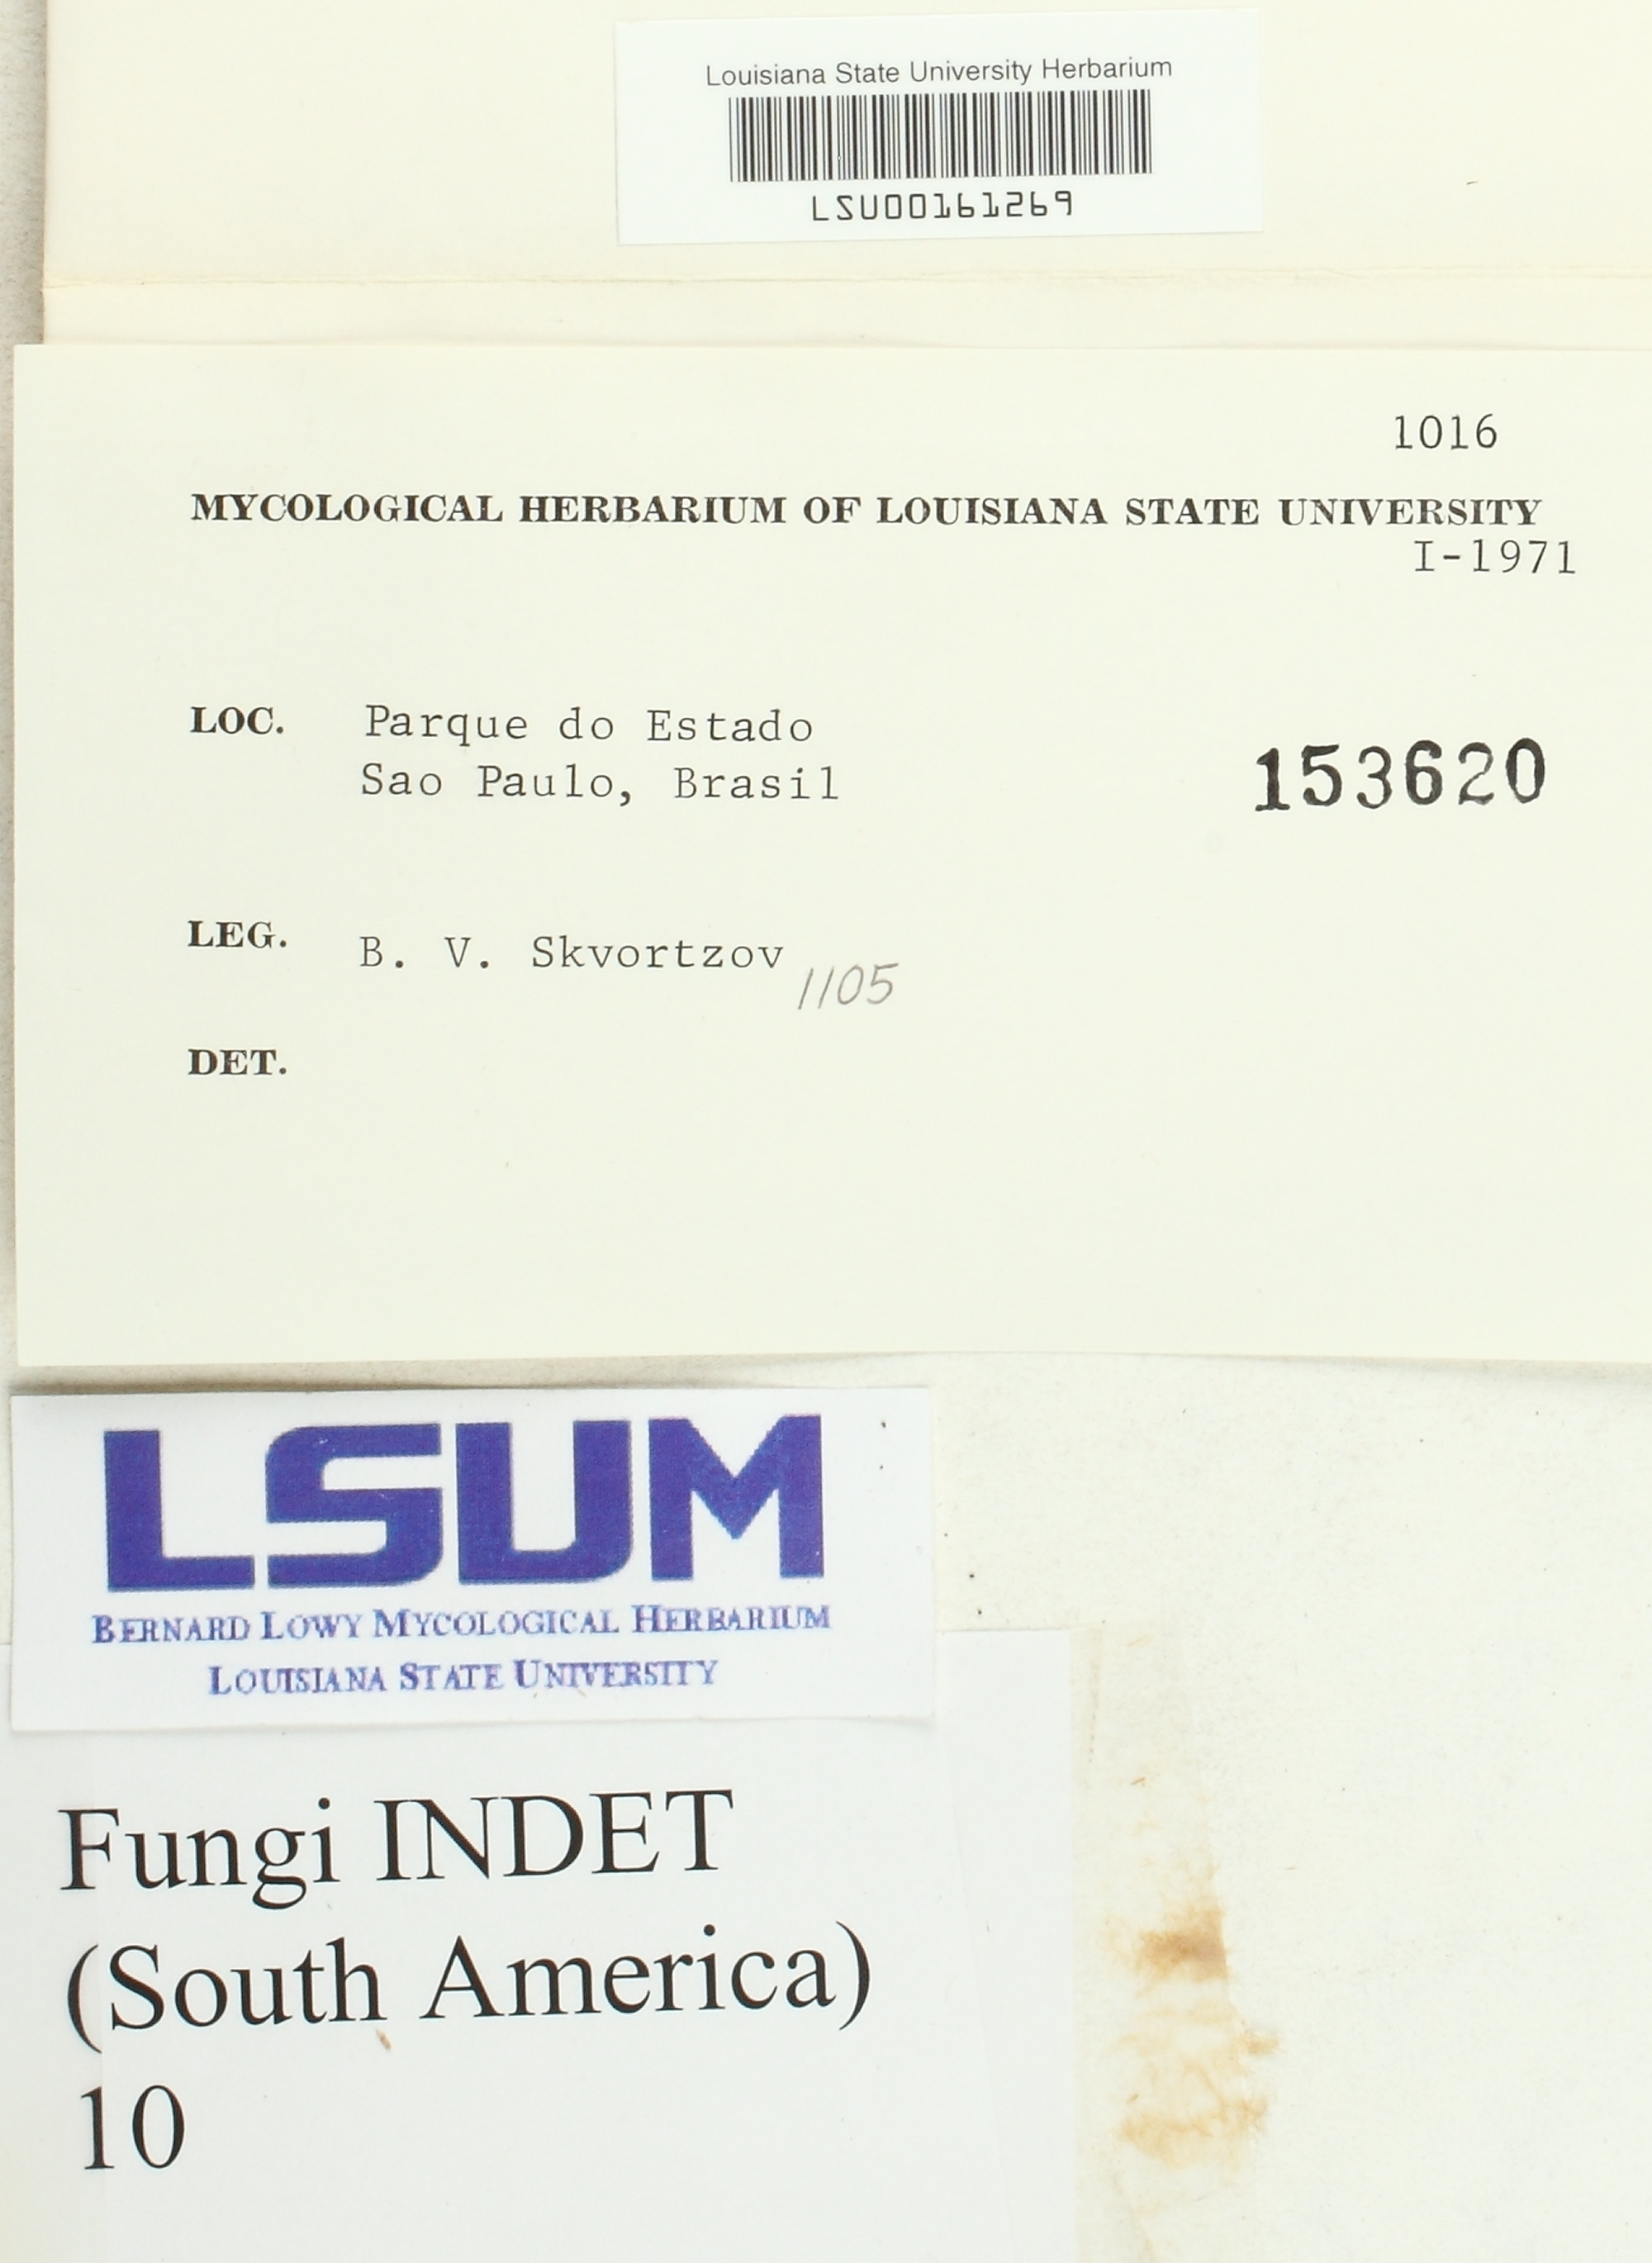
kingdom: Fungi
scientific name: Fungi
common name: Fungi
